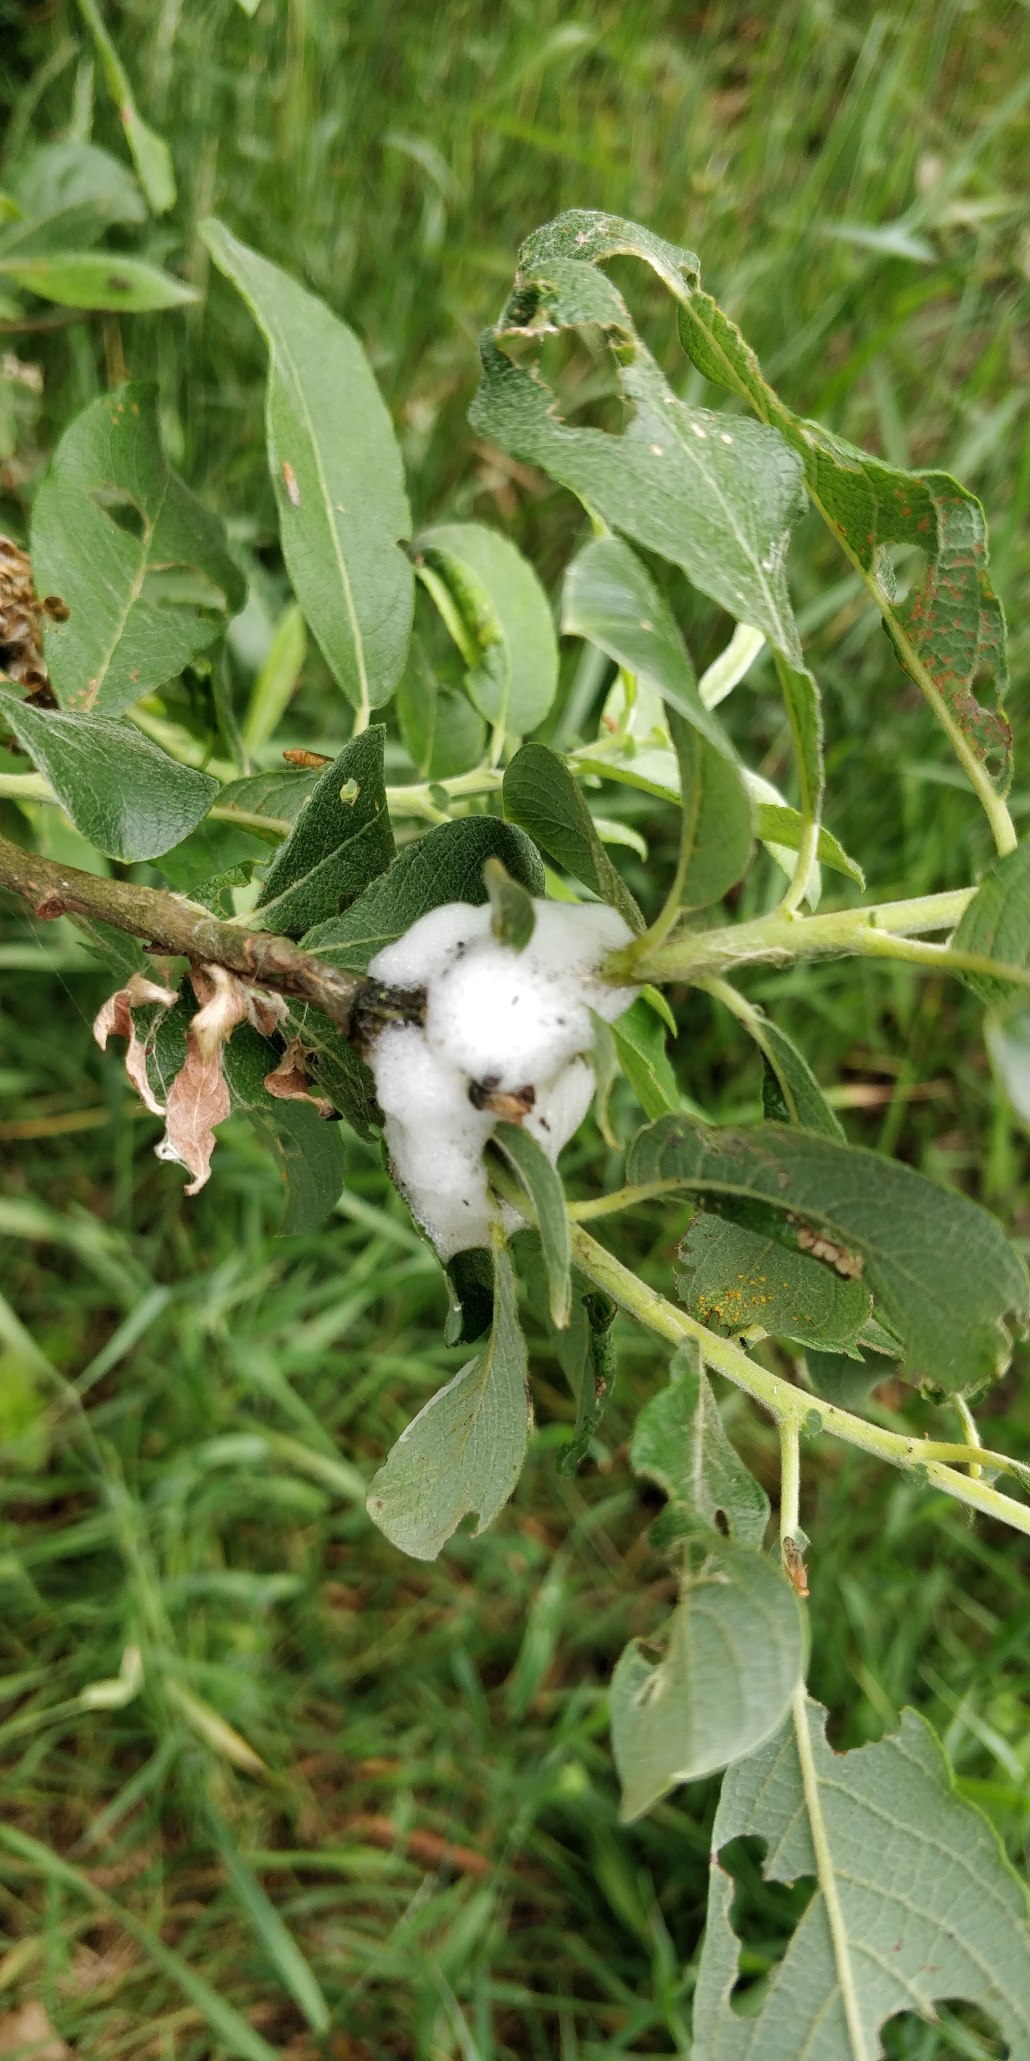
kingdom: Plantae
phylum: Tracheophyta
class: Magnoliopsida
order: Malpighiales
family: Salicaceae
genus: Salix
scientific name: Salix cinerea
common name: Grå-pil
